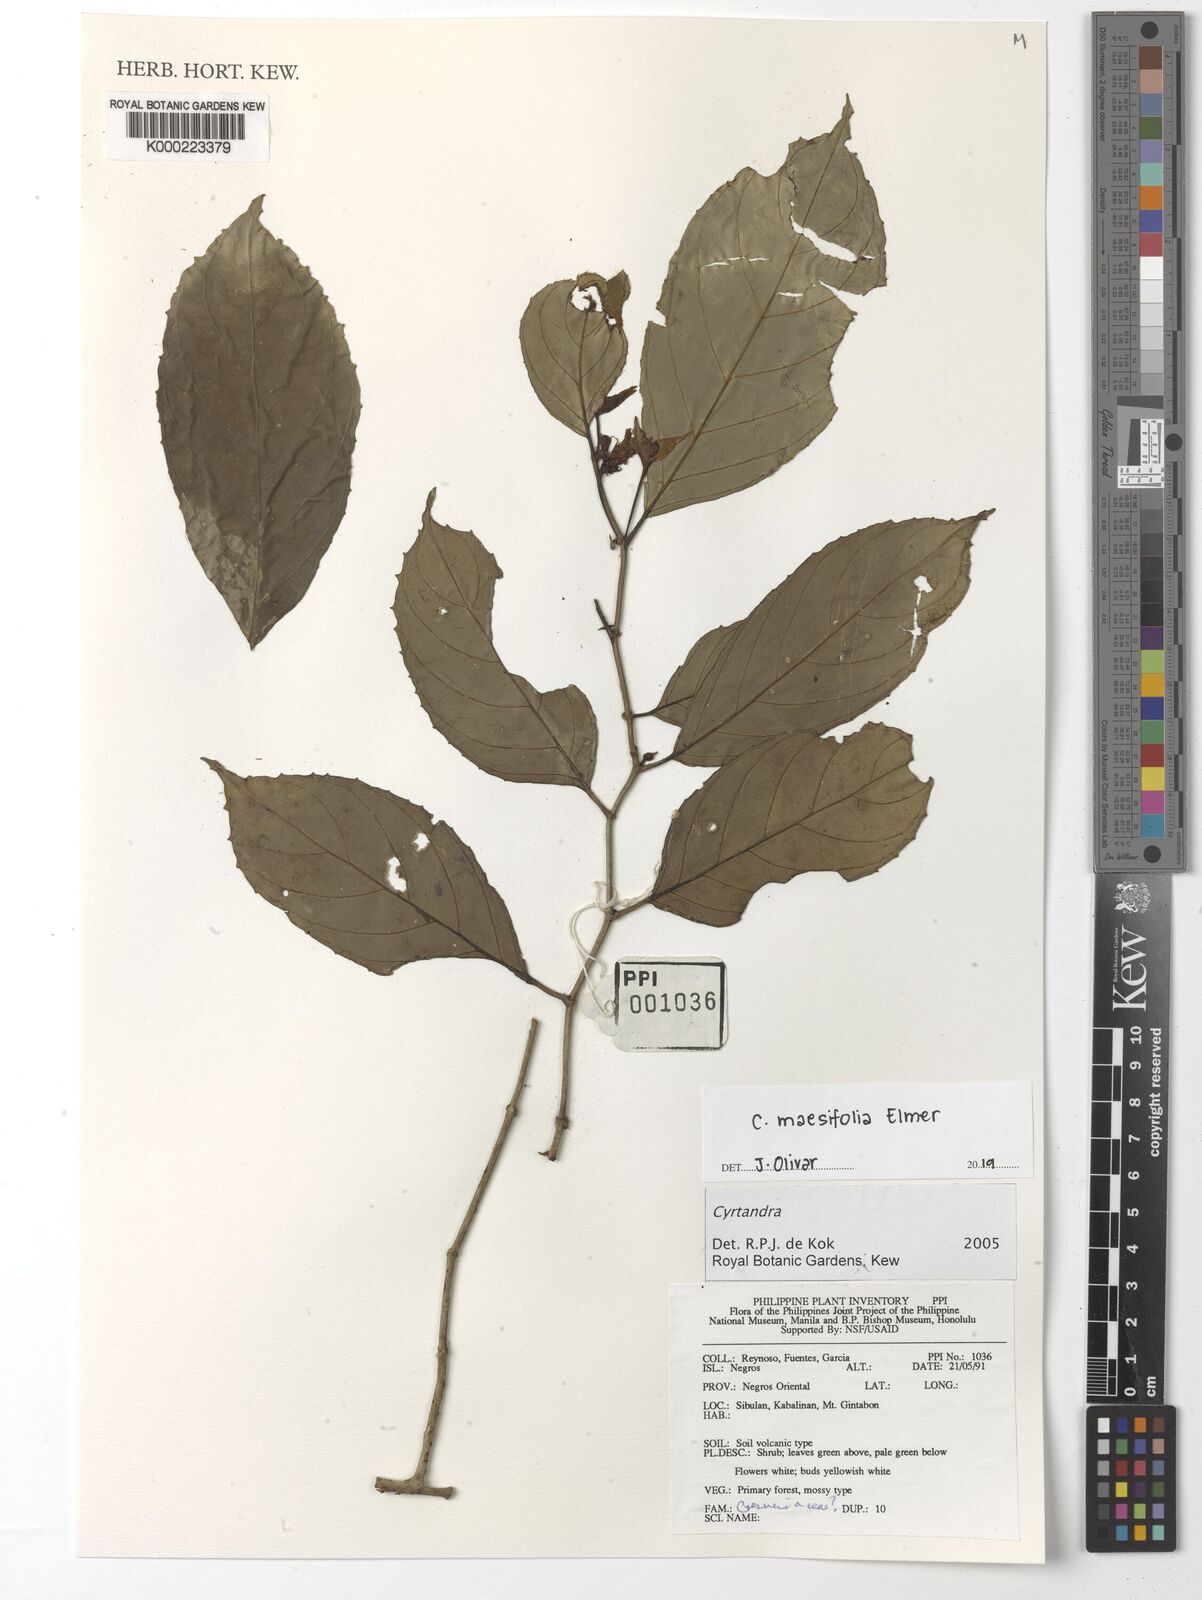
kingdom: Plantae
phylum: Tracheophyta
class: Magnoliopsida
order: Lamiales
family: Gesneriaceae
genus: Cyrtandra
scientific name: Cyrtandra
